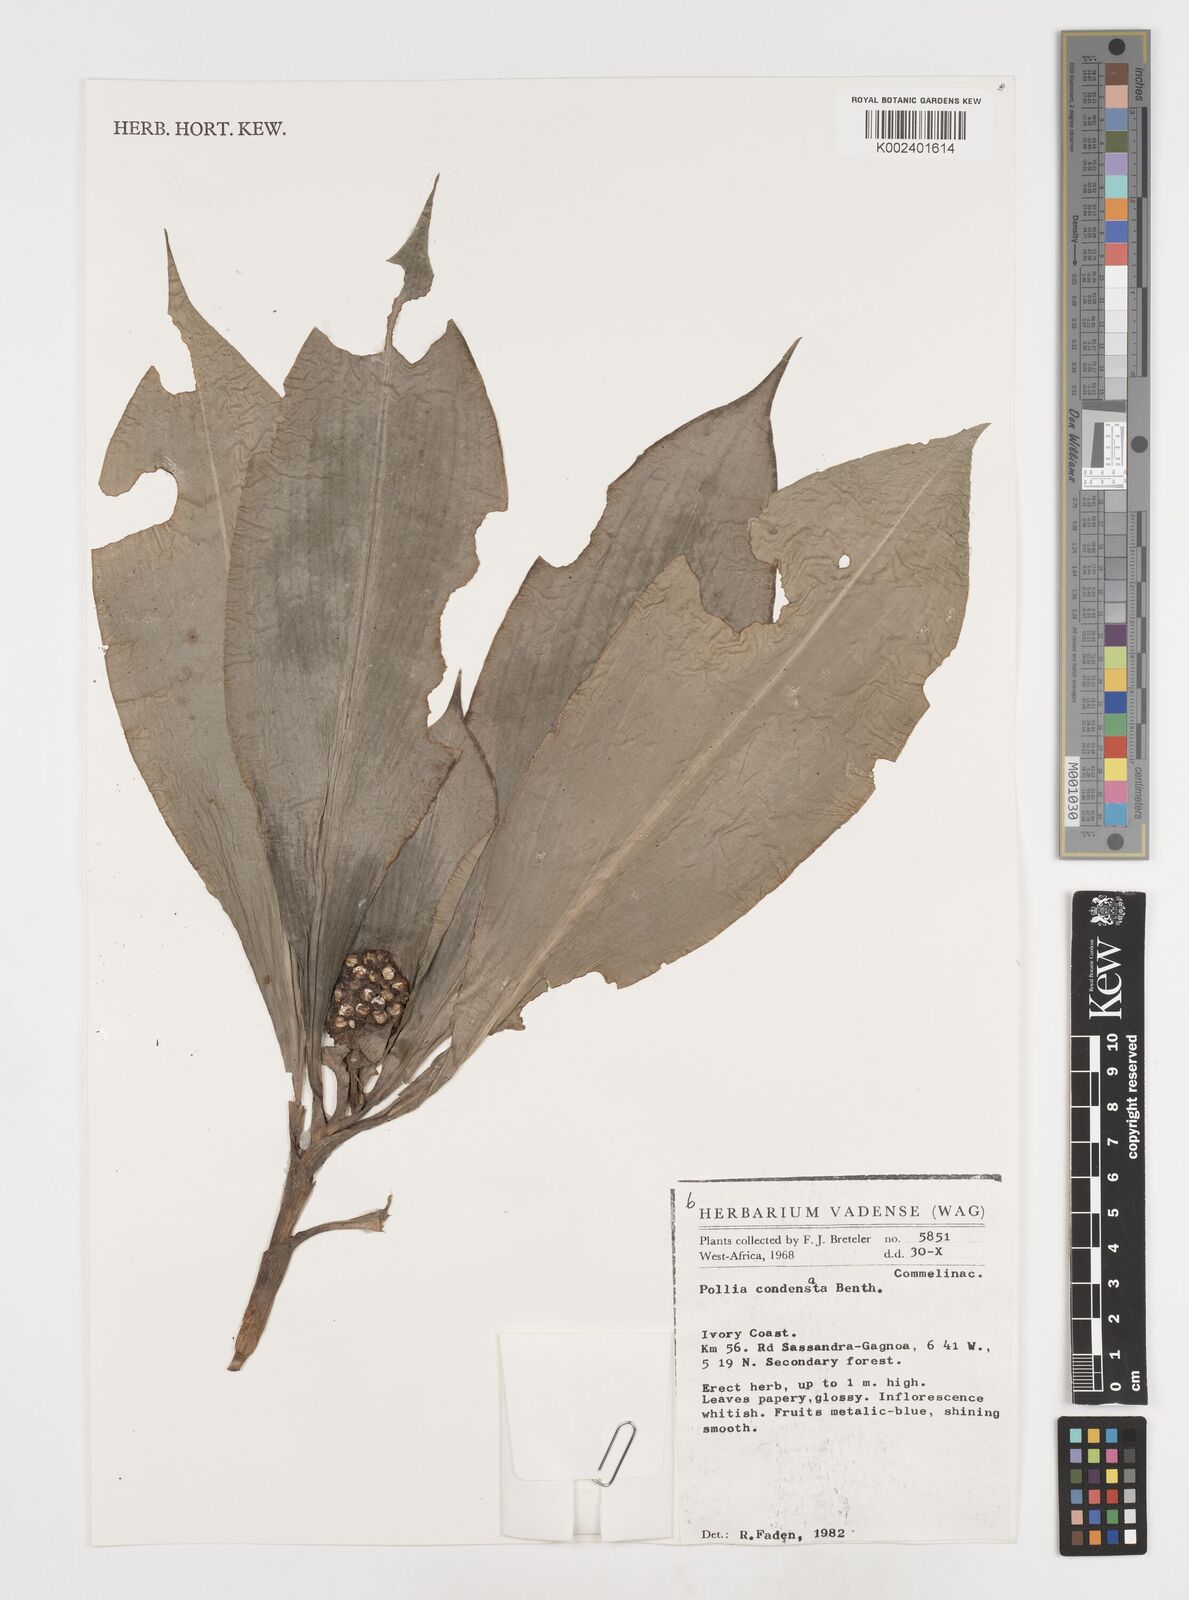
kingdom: Plantae
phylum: Tracheophyta
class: Liliopsida
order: Commelinales
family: Commelinaceae
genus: Pollia
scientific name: Pollia condensata
